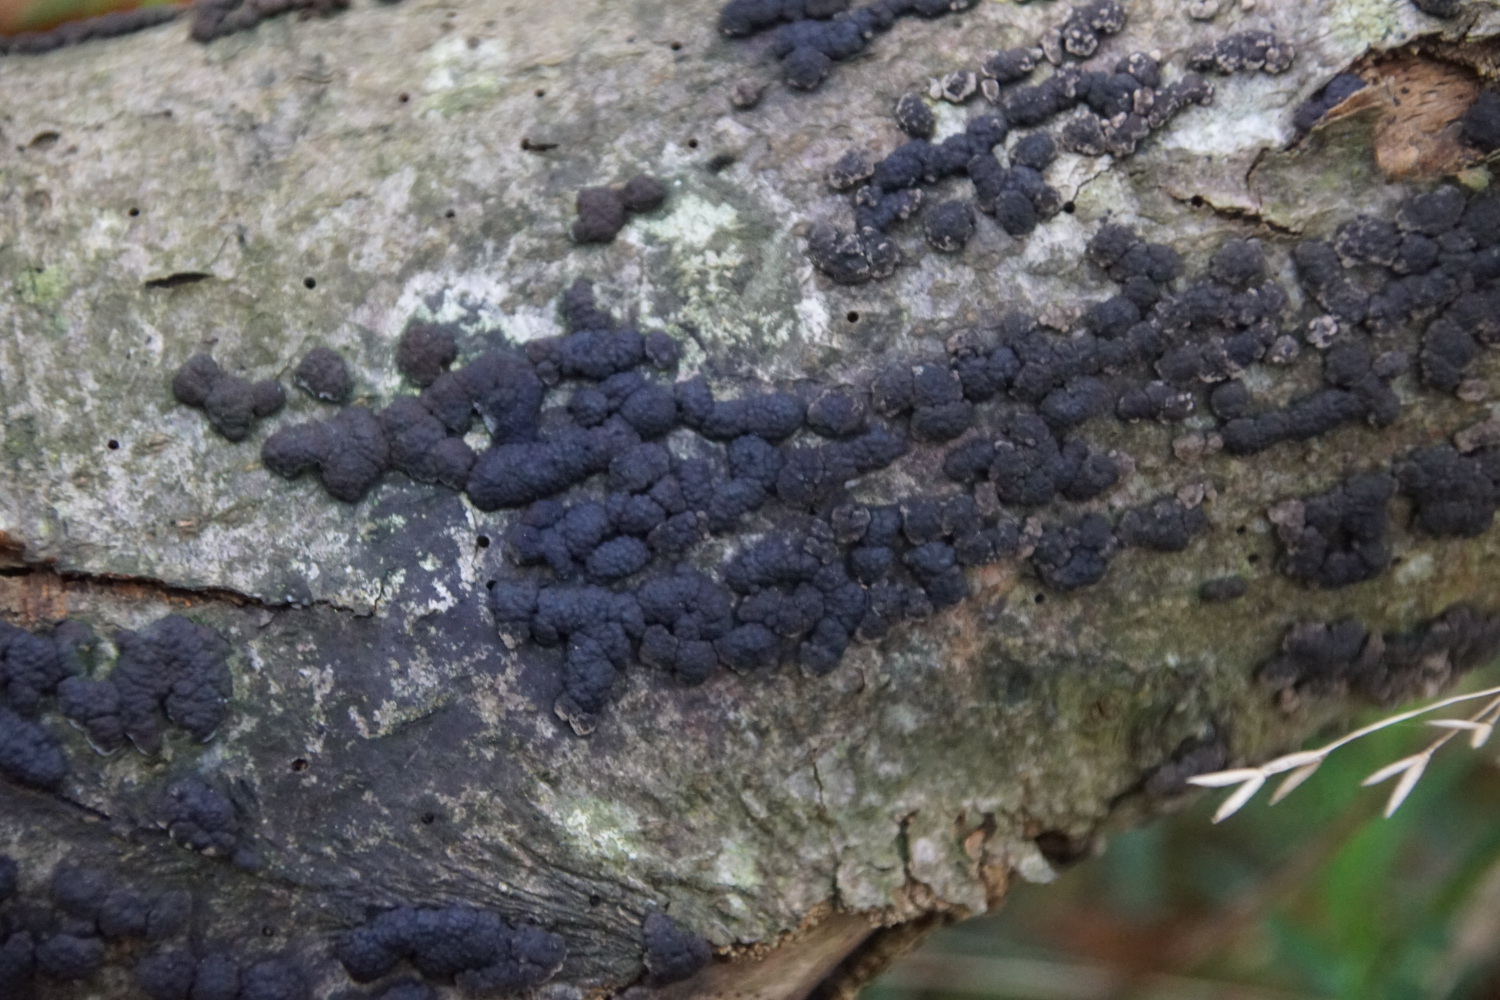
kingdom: Fungi
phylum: Ascomycota
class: Sordariomycetes
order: Xylariales
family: Hypoxylaceae
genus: Jackrogersella
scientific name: Jackrogersella cohaerens
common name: sammenflydende kulbær
